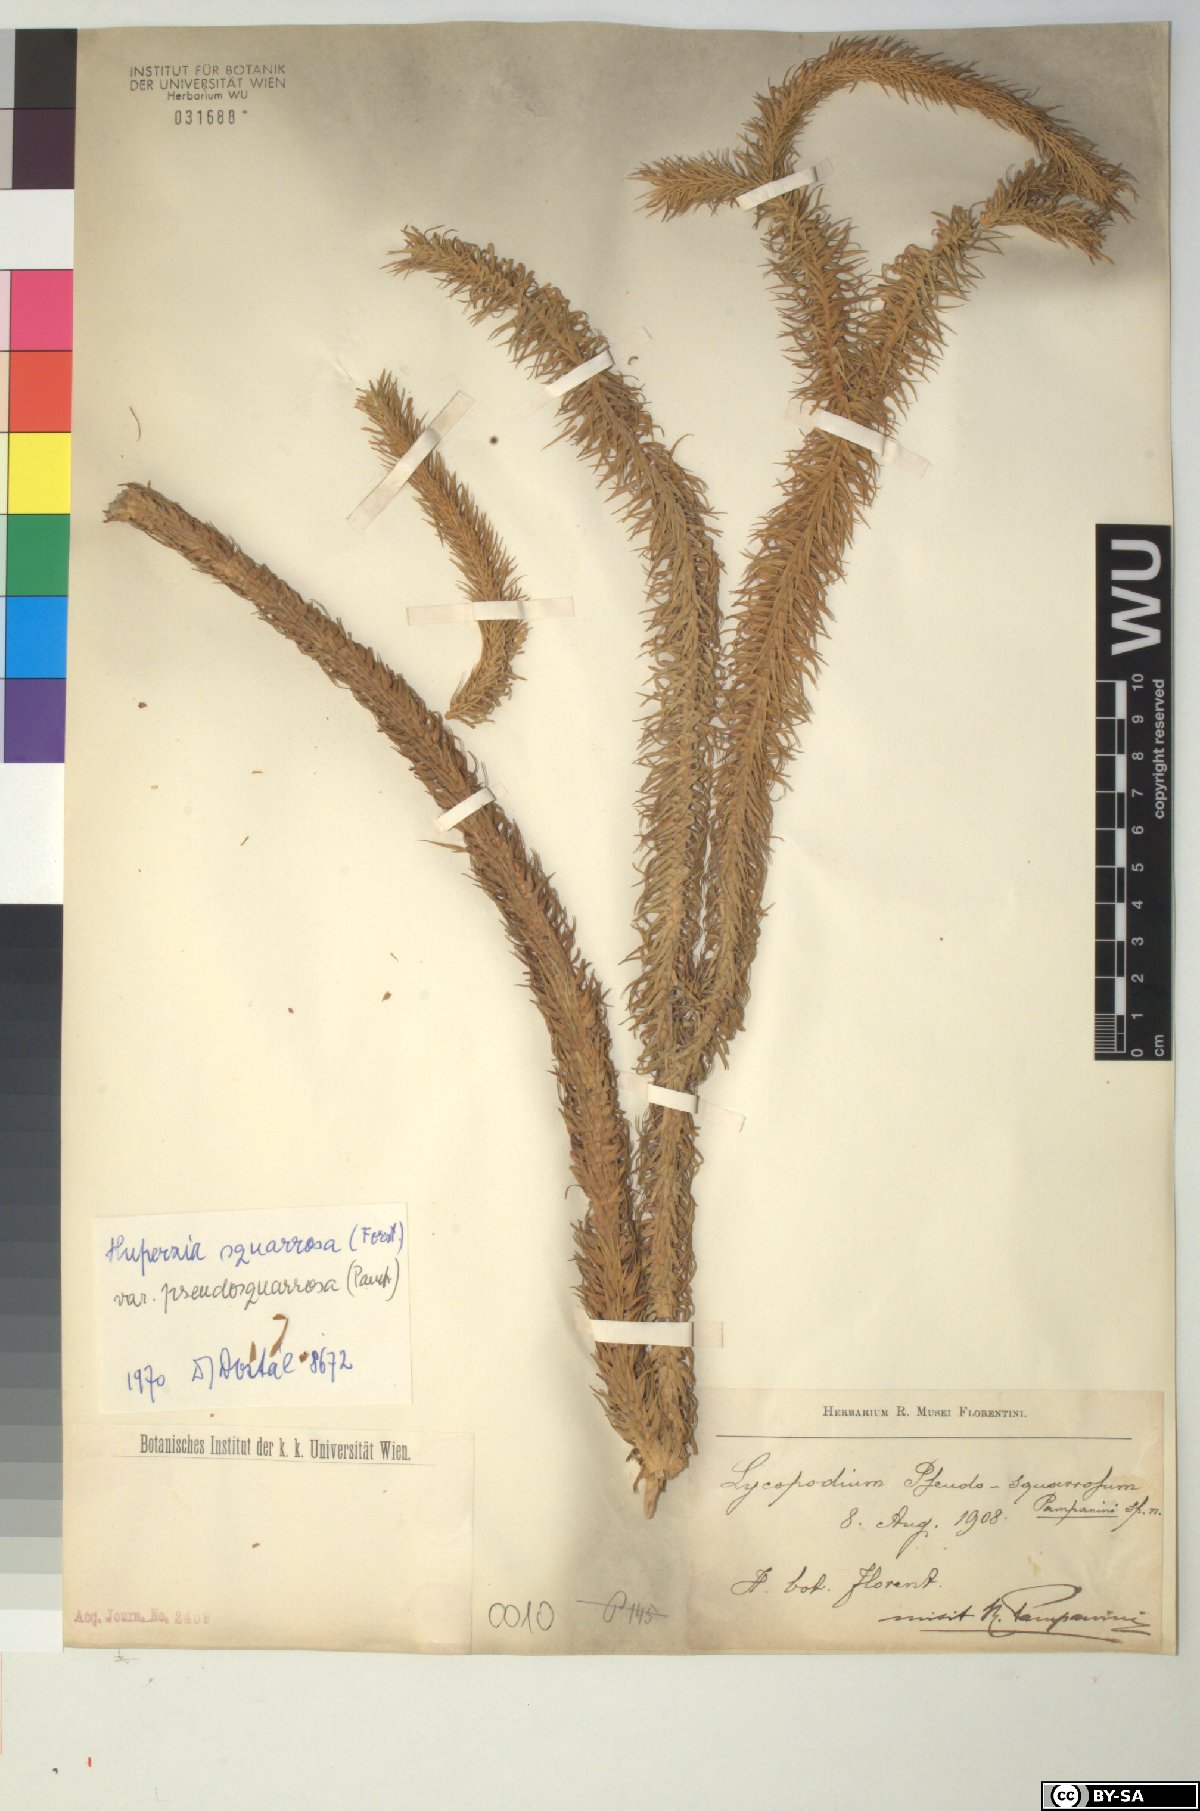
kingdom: Plantae
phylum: Tracheophyta
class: Lycopodiopsida
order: Lycopodiales
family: Lycopodiaceae
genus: Phlegmariurus
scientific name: Phlegmariurus squarrosus
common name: Rock tassel-fern
